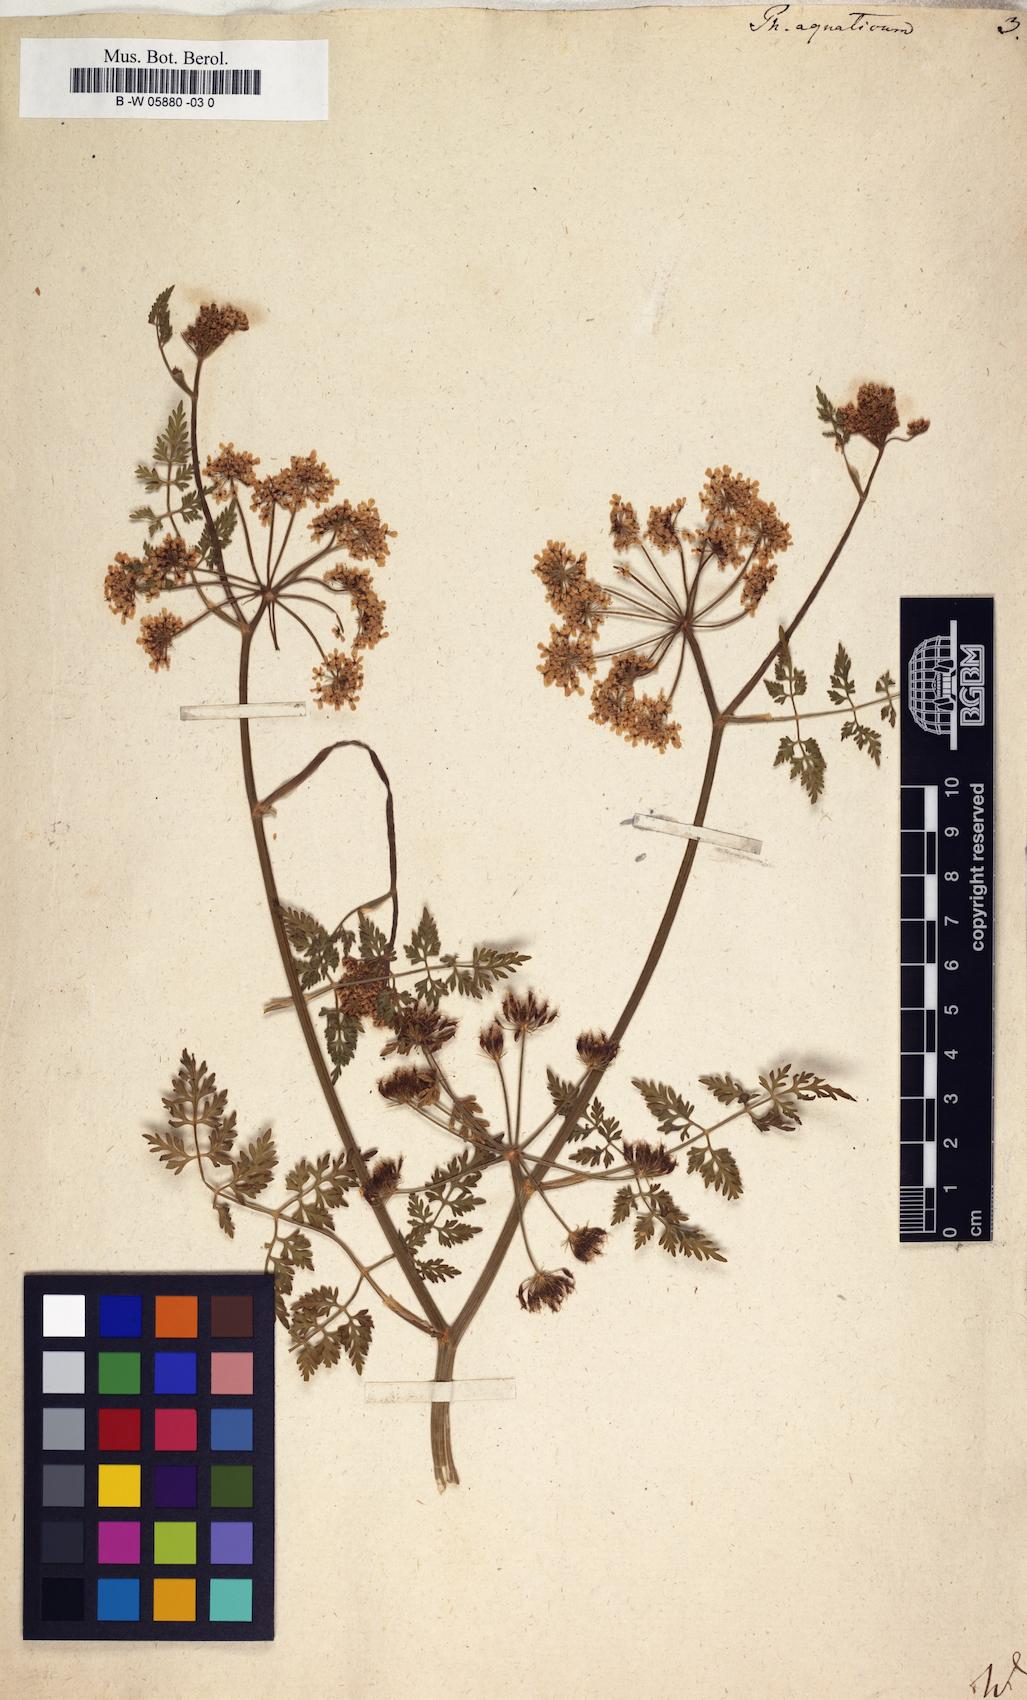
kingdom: Plantae
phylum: Tracheophyta
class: Magnoliopsida
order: Apiales
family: Apiaceae
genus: Oenanthe
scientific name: Oenanthe aquatica
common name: Fine-leaved water-dropwort
